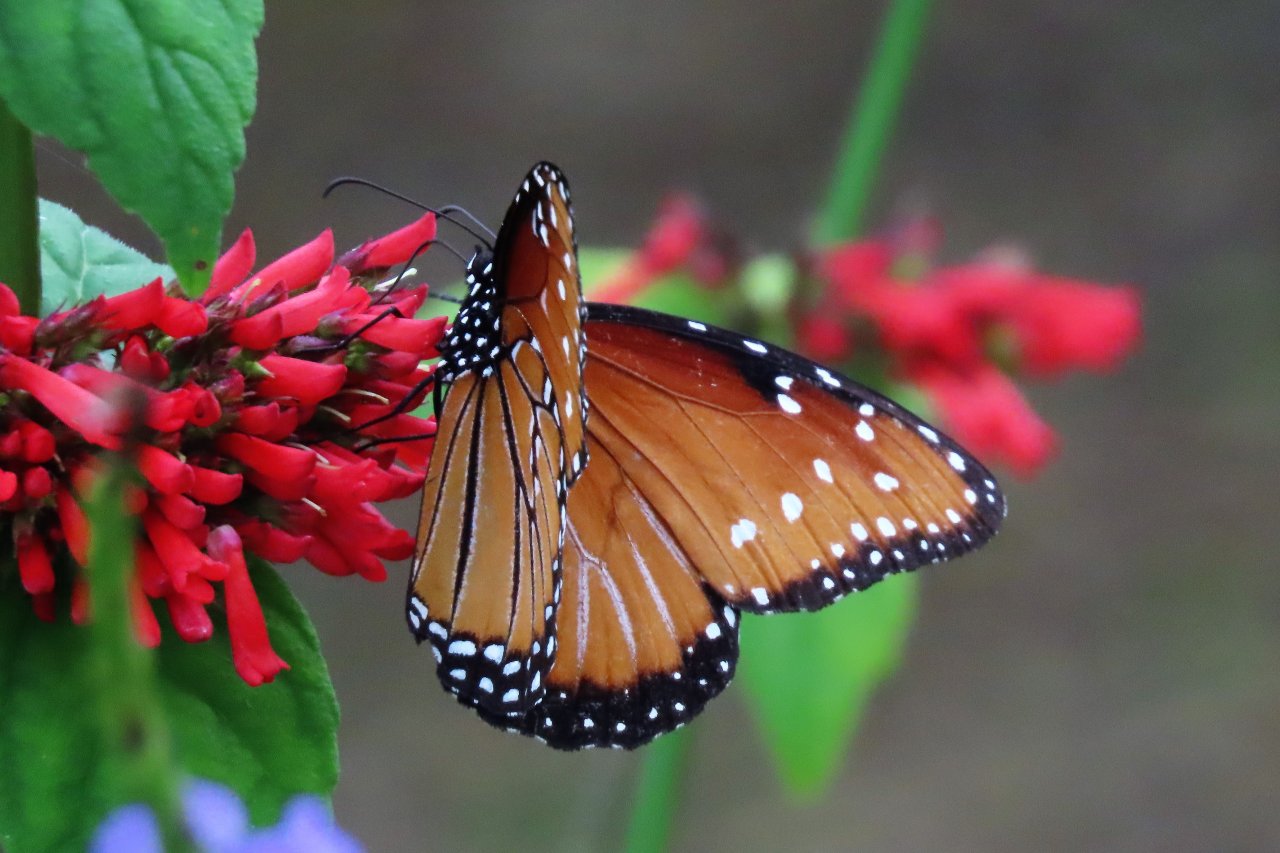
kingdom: Animalia
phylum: Arthropoda
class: Insecta
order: Lepidoptera
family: Nymphalidae
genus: Danaus
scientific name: Danaus gilippus
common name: Queen
